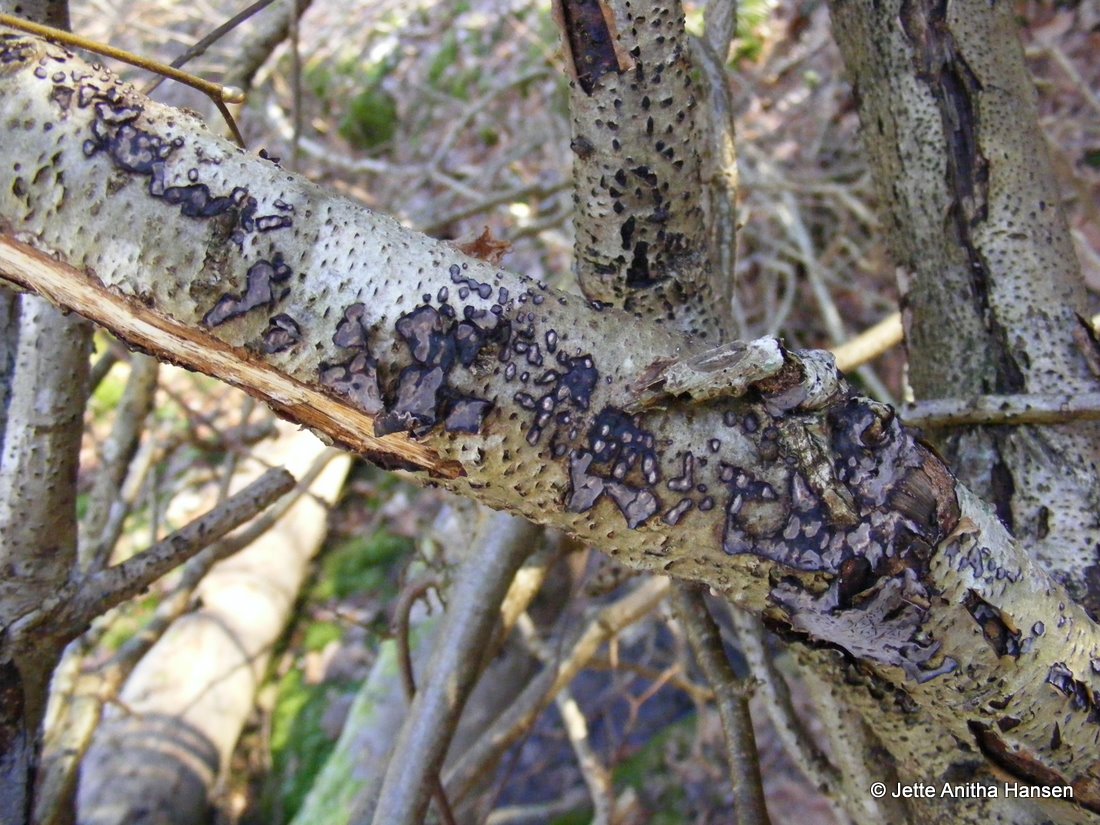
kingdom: Fungi
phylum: Basidiomycota
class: Agaricomycetes
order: Russulales
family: Peniophoraceae
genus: Peniophora
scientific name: Peniophora quercina
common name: ege-voksskind
